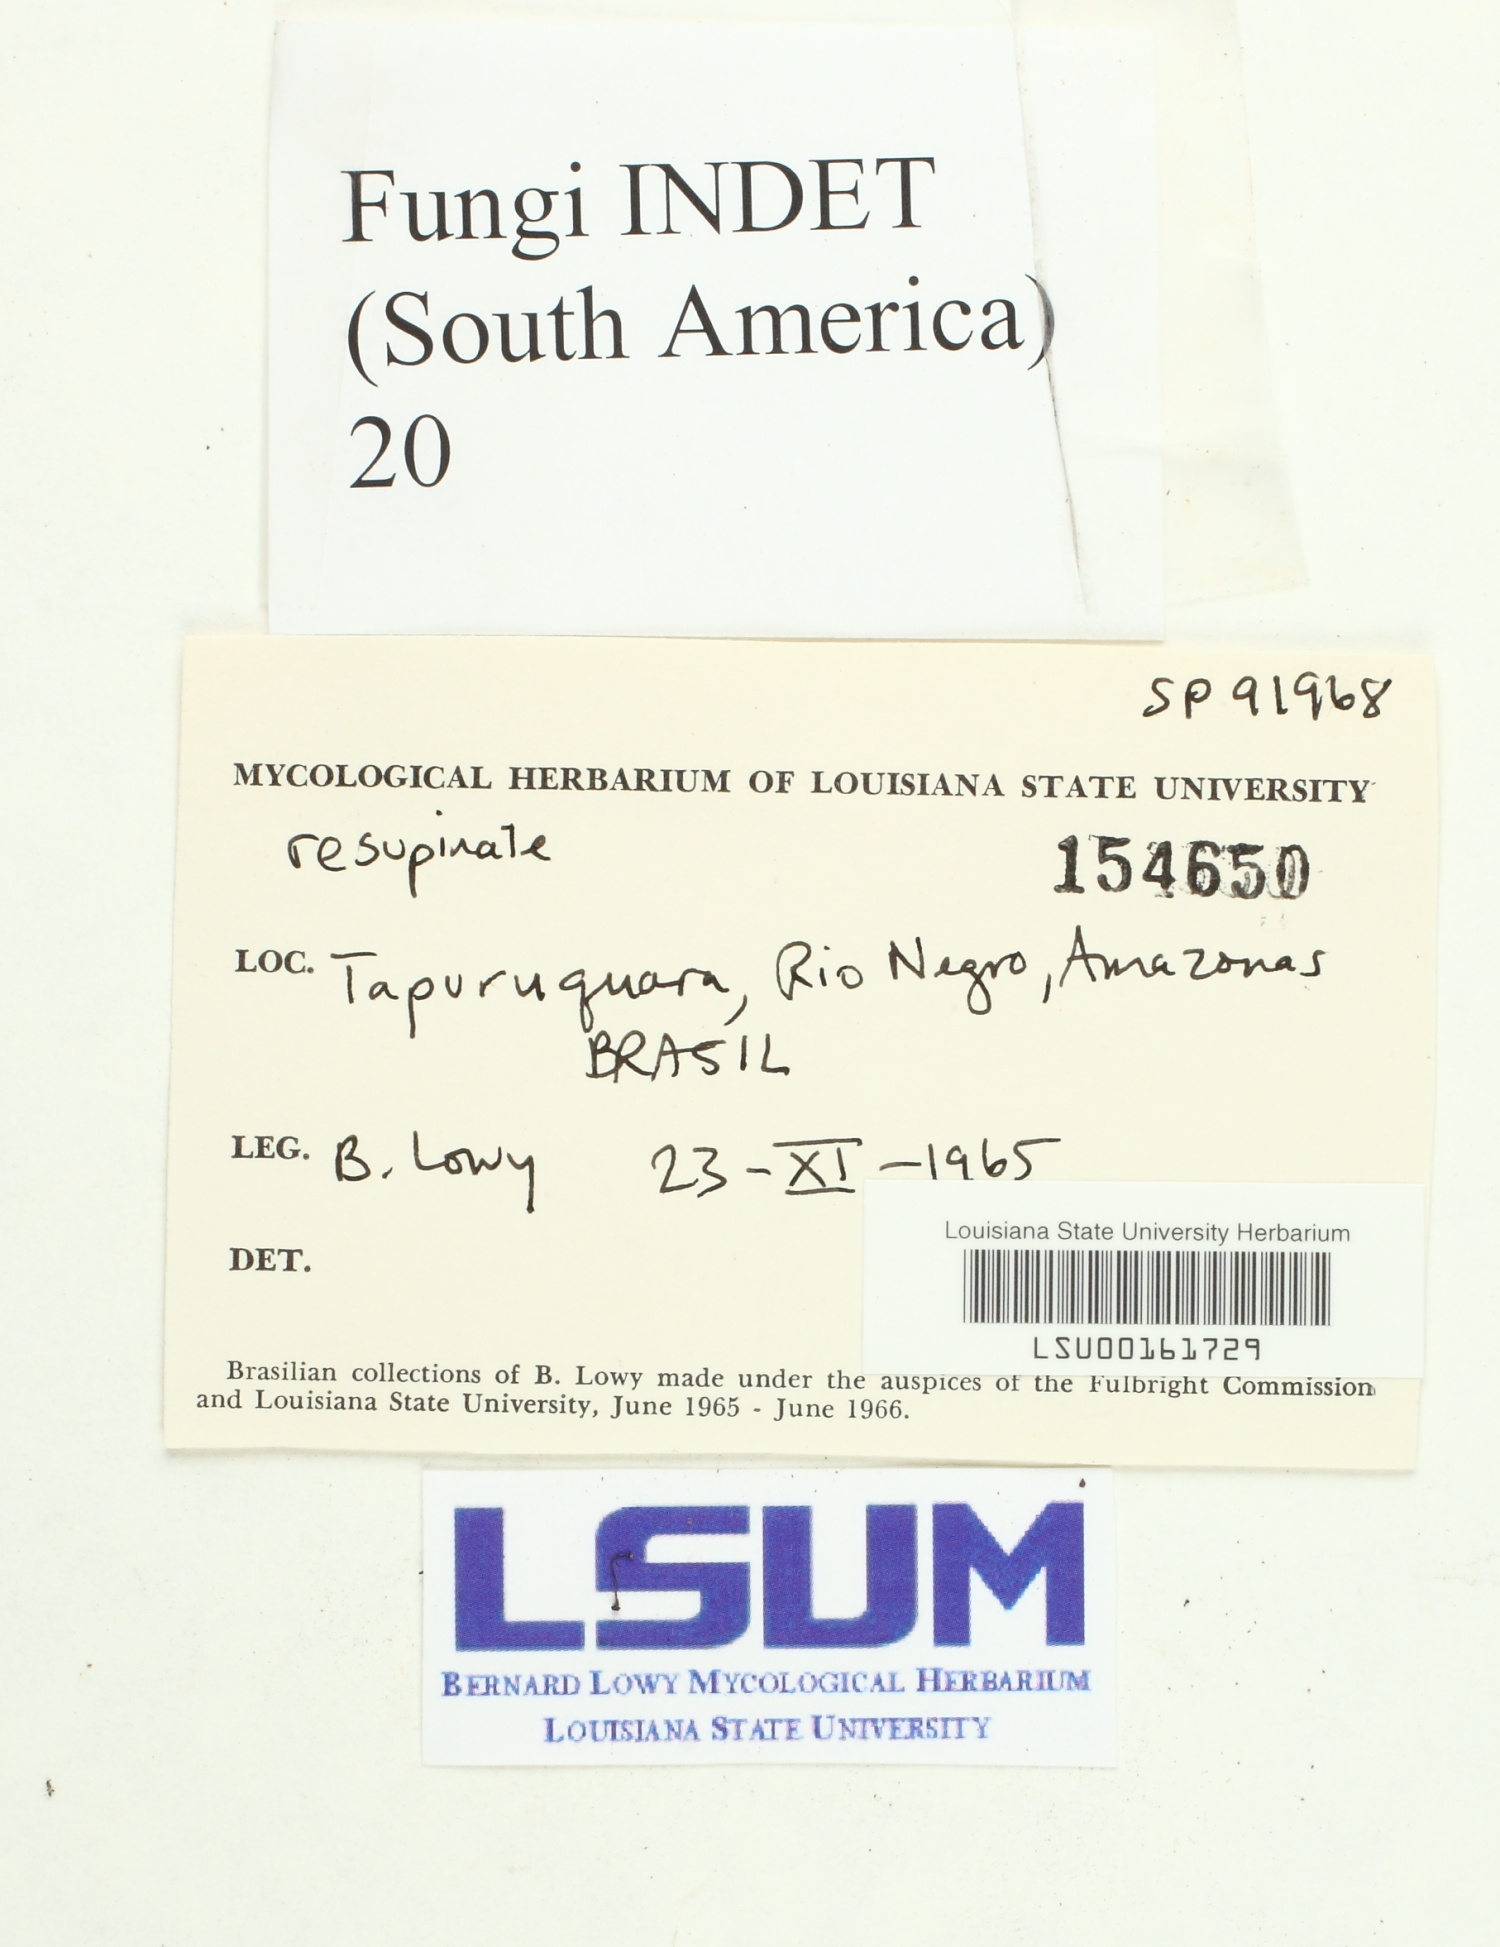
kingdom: Fungi
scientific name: Fungi
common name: Fungi
